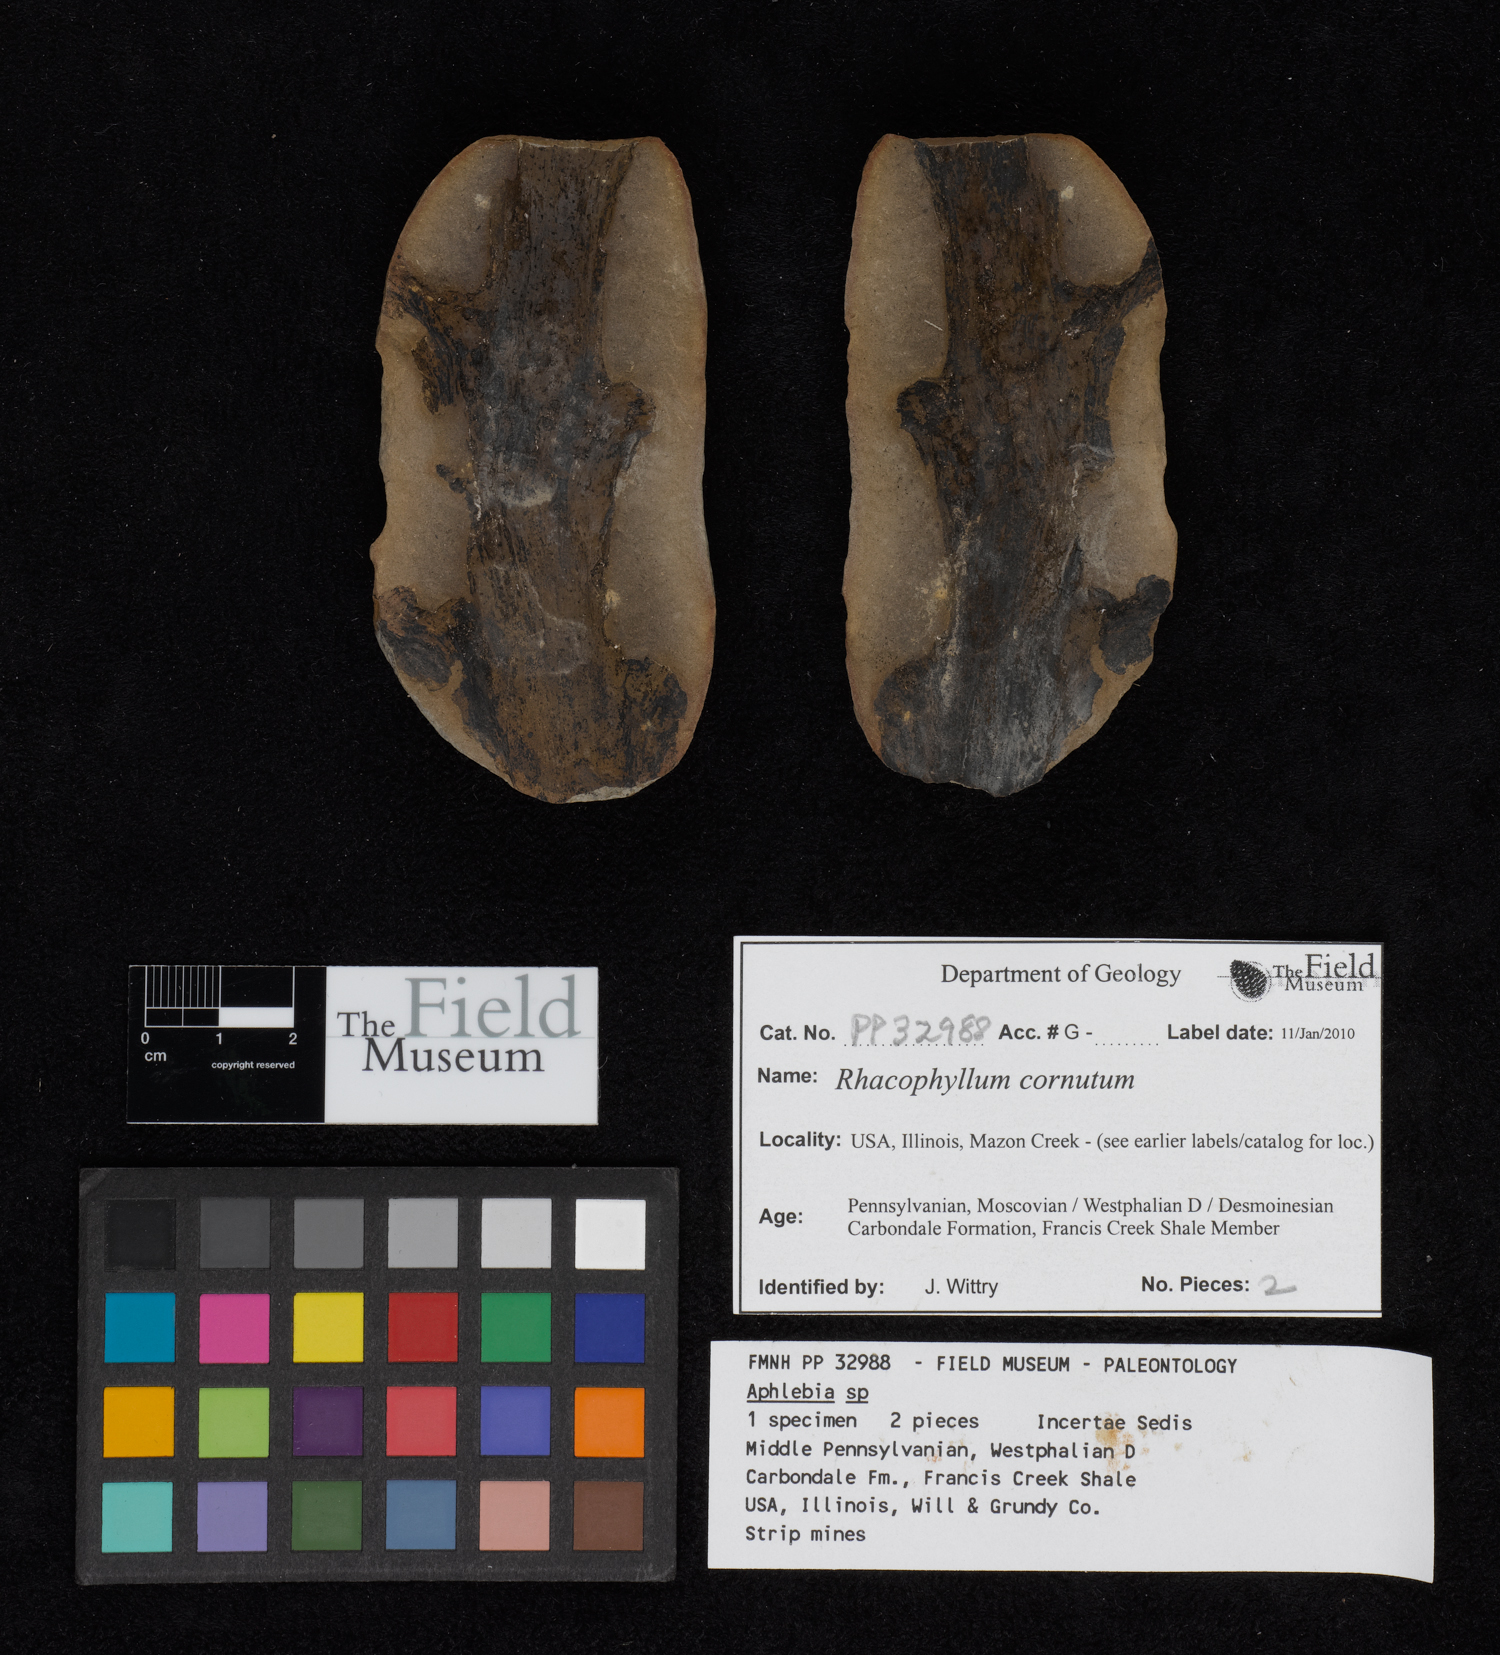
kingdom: Plantae
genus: Rhacophyllum
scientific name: Rhacophyllum
